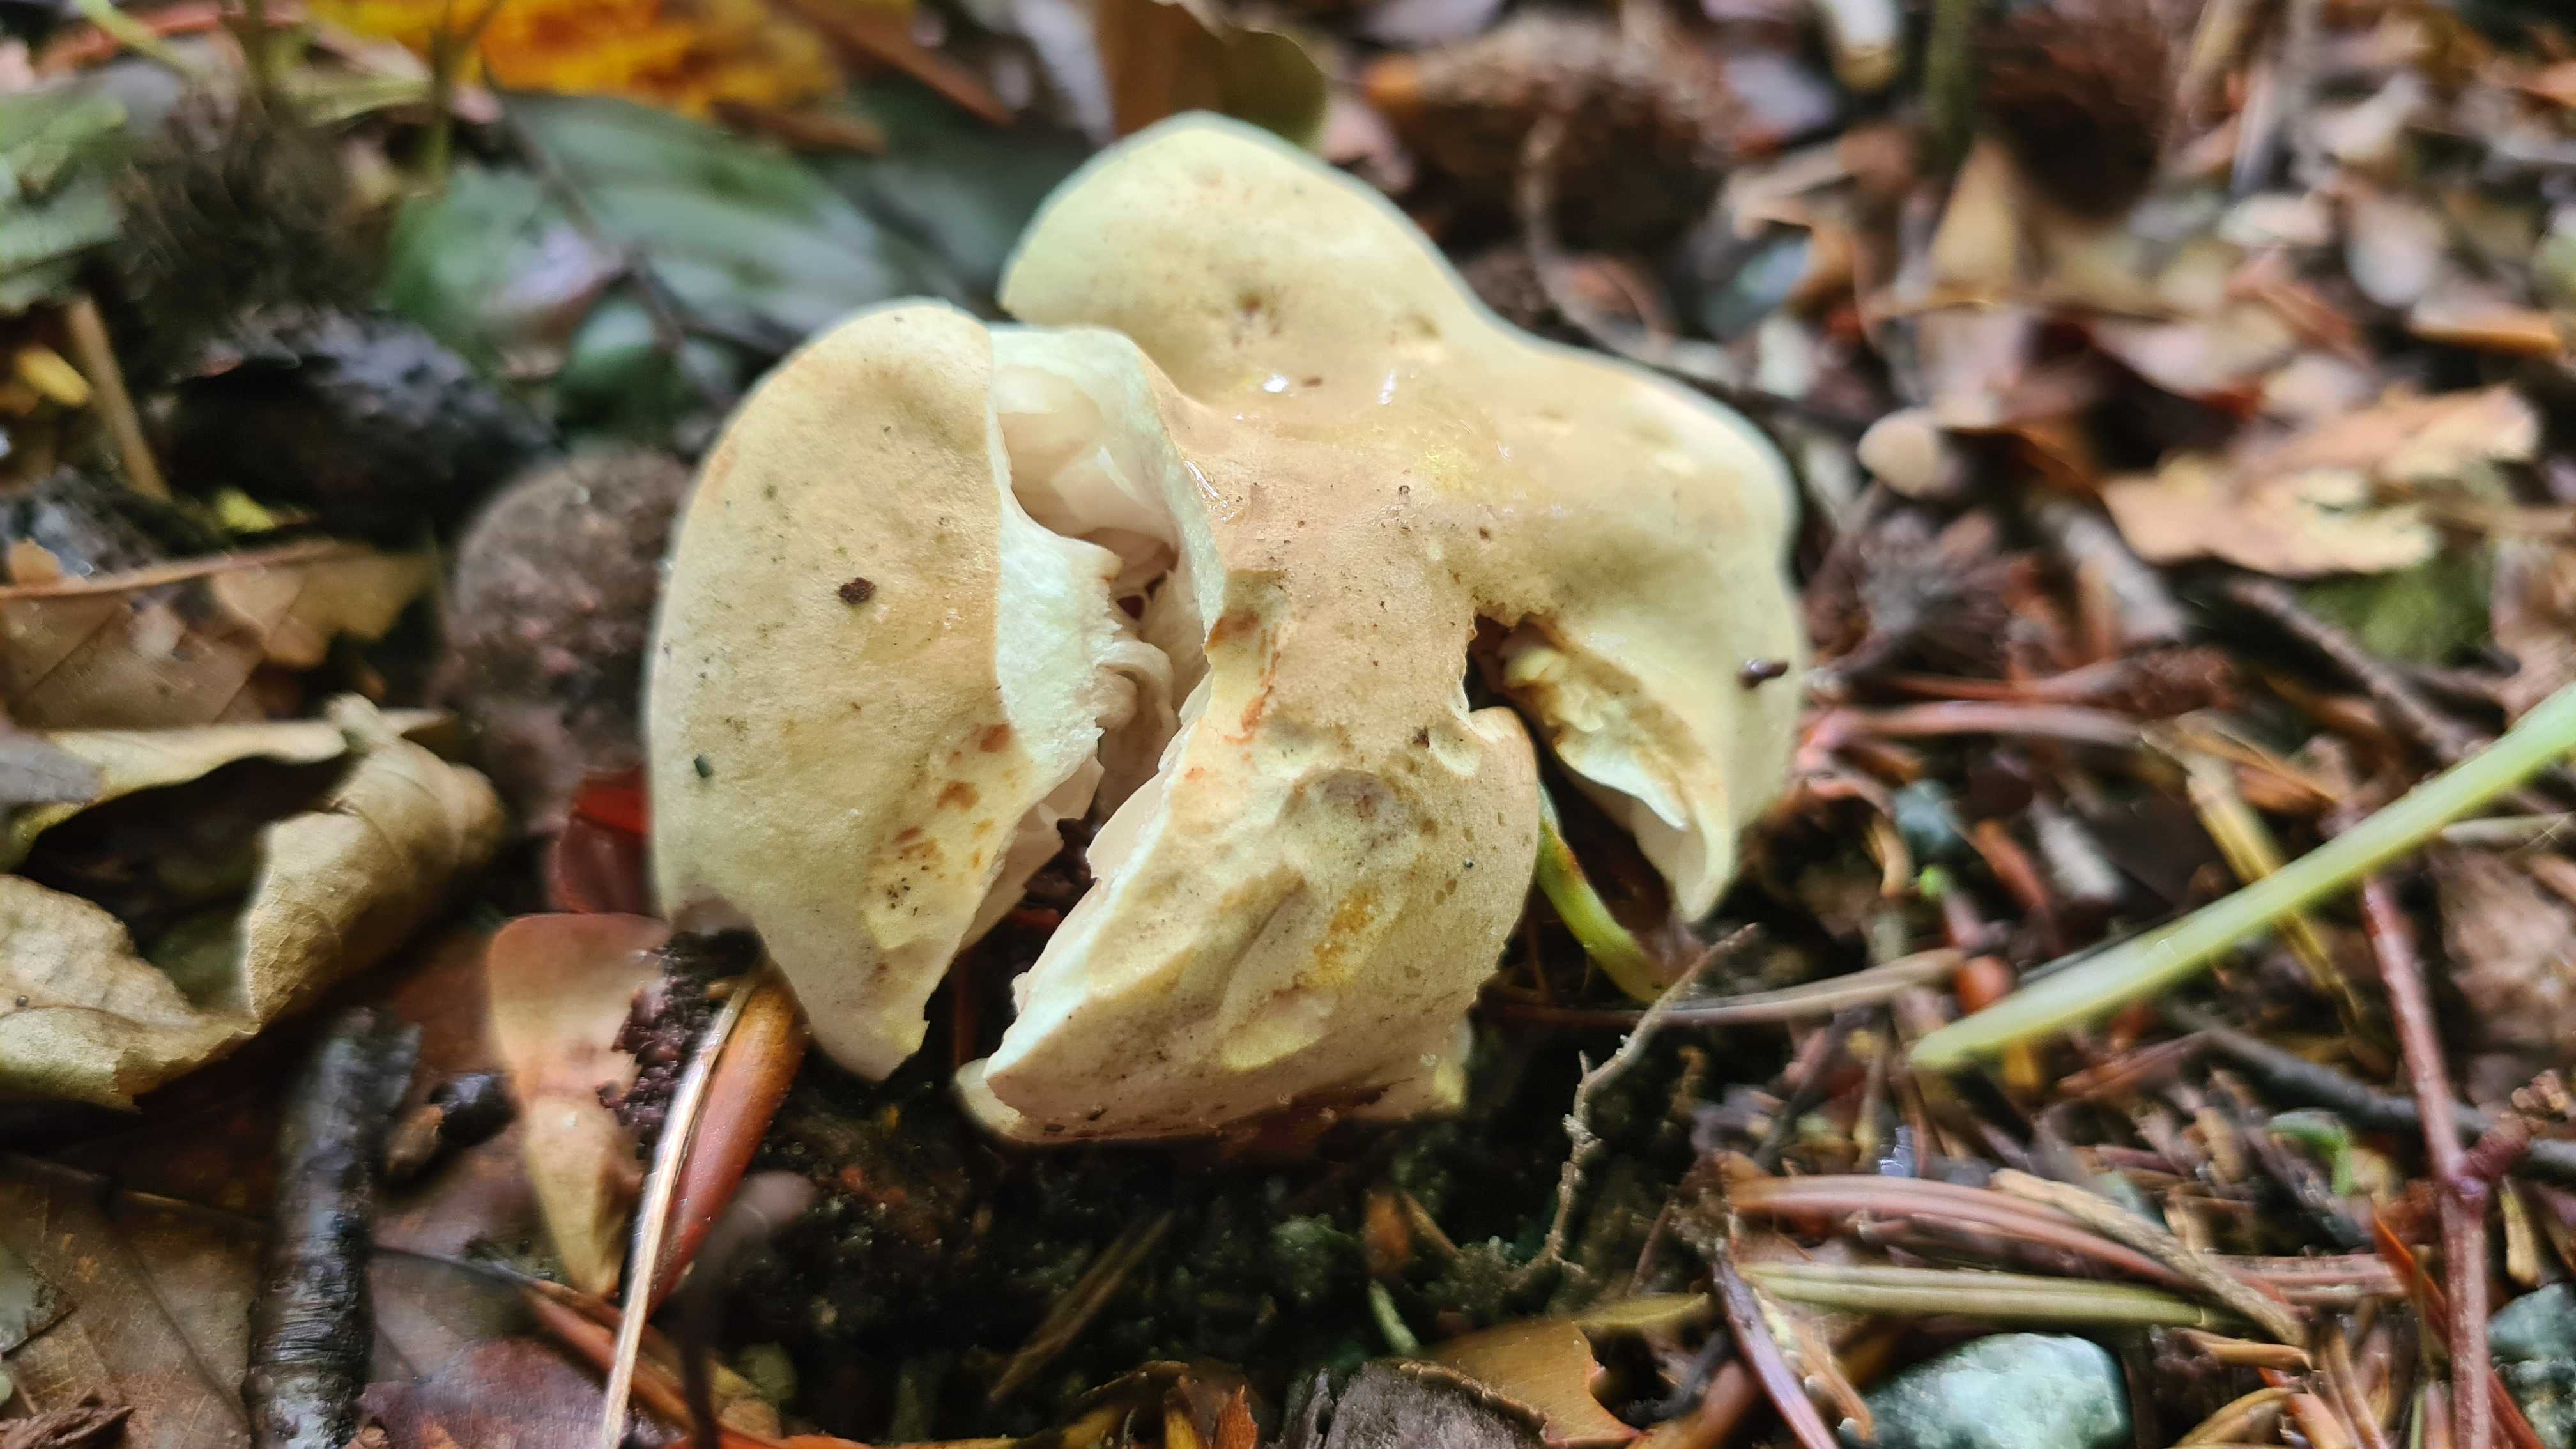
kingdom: Fungi
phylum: Basidiomycota
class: Agaricomycetes
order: Agaricales
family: Tricholomataceae
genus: Tricholoma
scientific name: Tricholoma lascivum
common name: stinkende ridderhat
